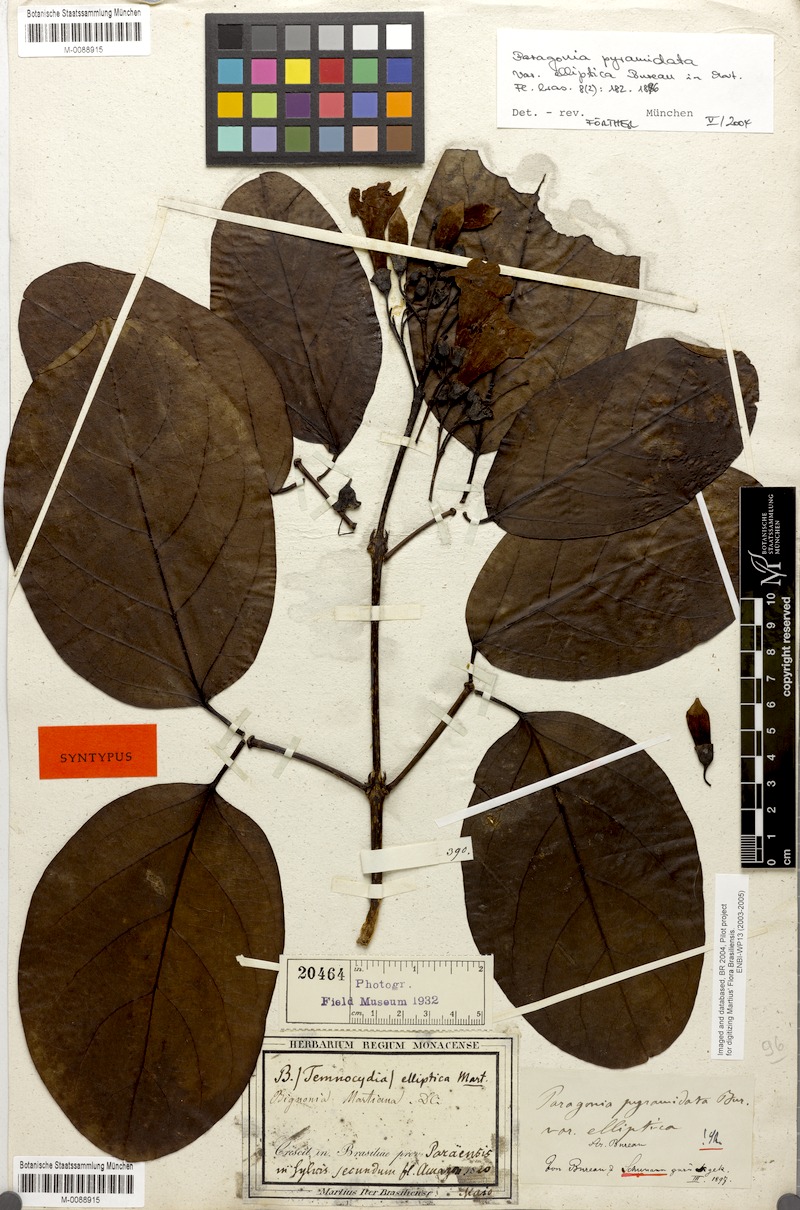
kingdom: Plantae
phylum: Tracheophyta
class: Magnoliopsida
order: Lamiales
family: Bignoniaceae
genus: Tanaecium
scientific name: Tanaecium pyramidatum
